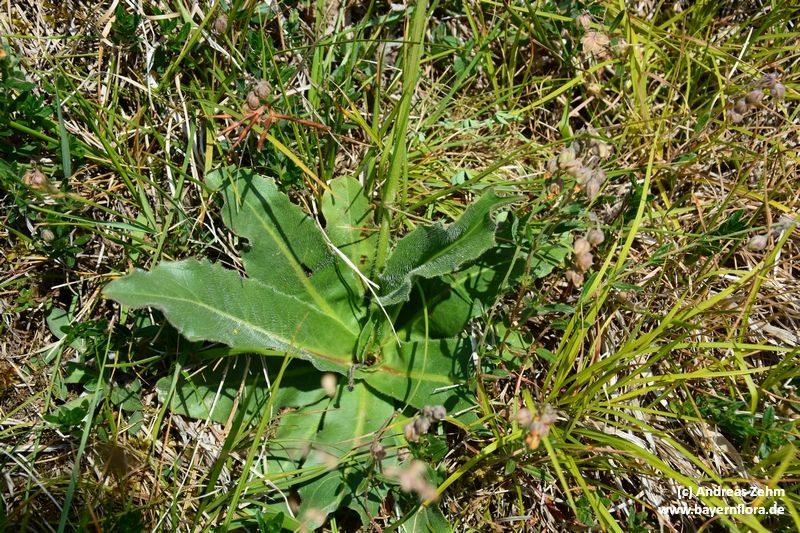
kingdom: Plantae
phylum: Tracheophyta
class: Magnoliopsida
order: Asterales
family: Asteraceae
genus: Trommsdorffia
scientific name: Trommsdorffia maculata
